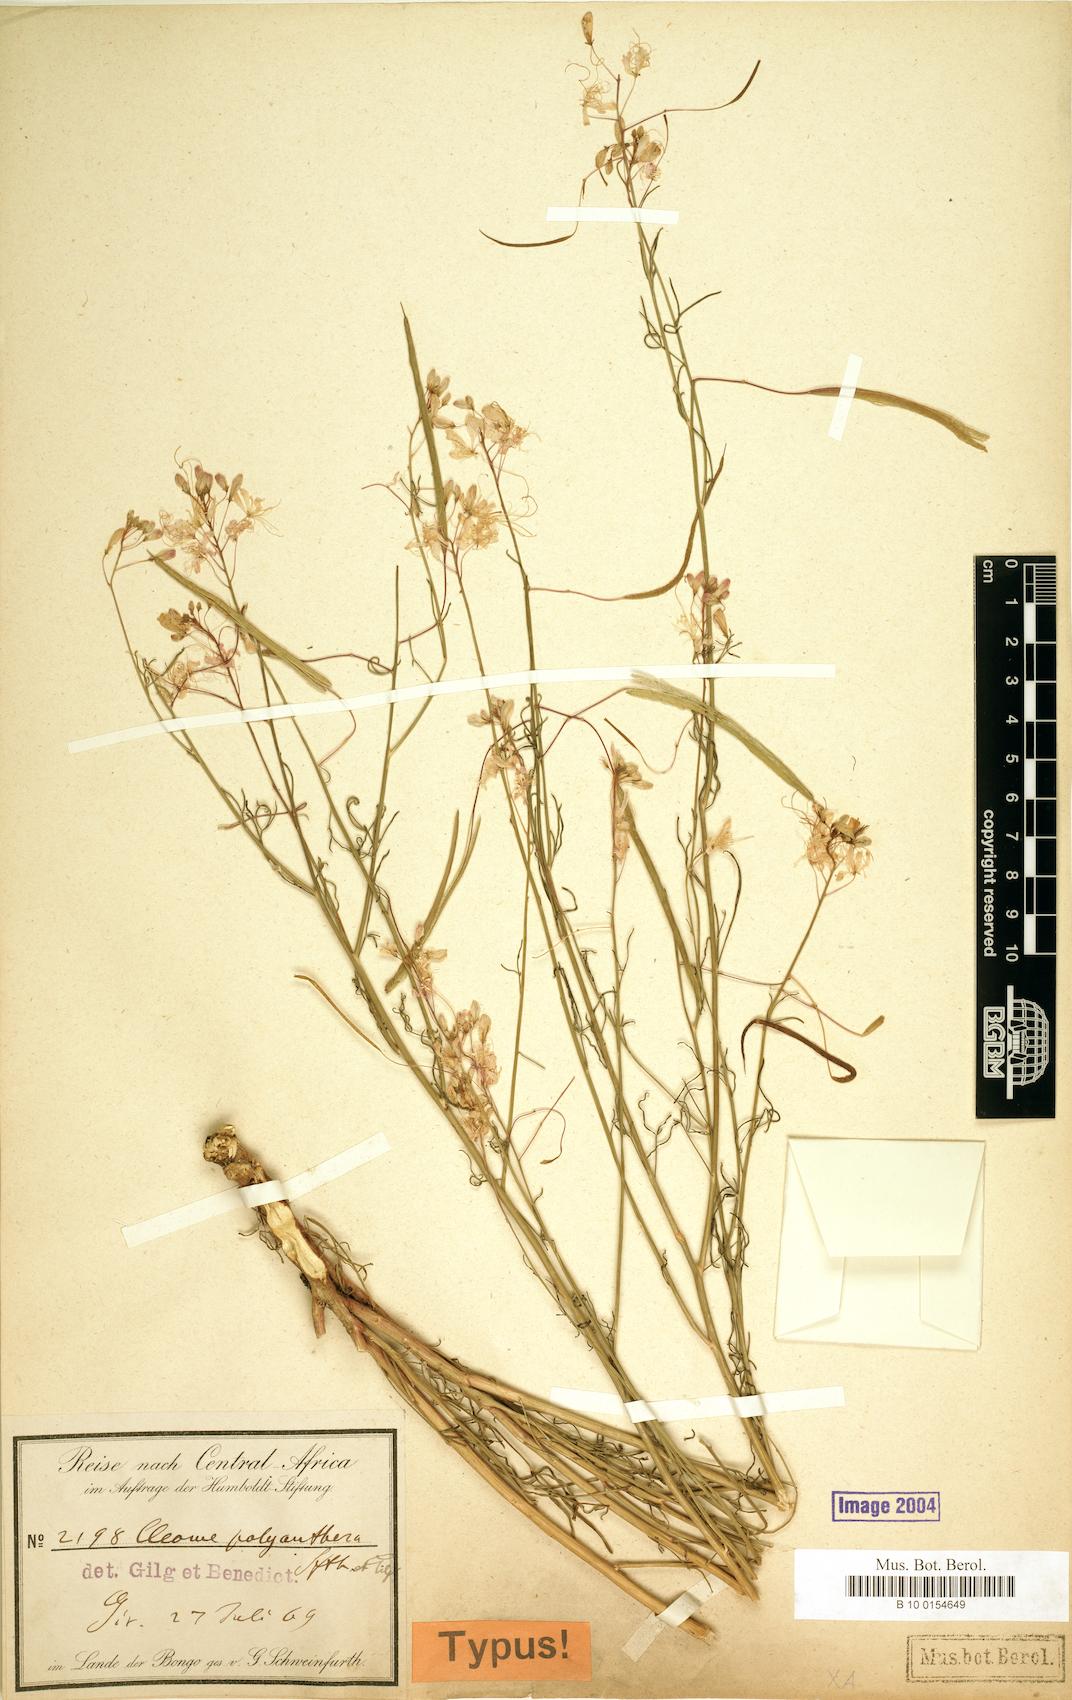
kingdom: Plantae
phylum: Tracheophyta
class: Magnoliopsida
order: Brassicales
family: Cleomaceae
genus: Coalisina
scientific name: Coalisina polyanthera
